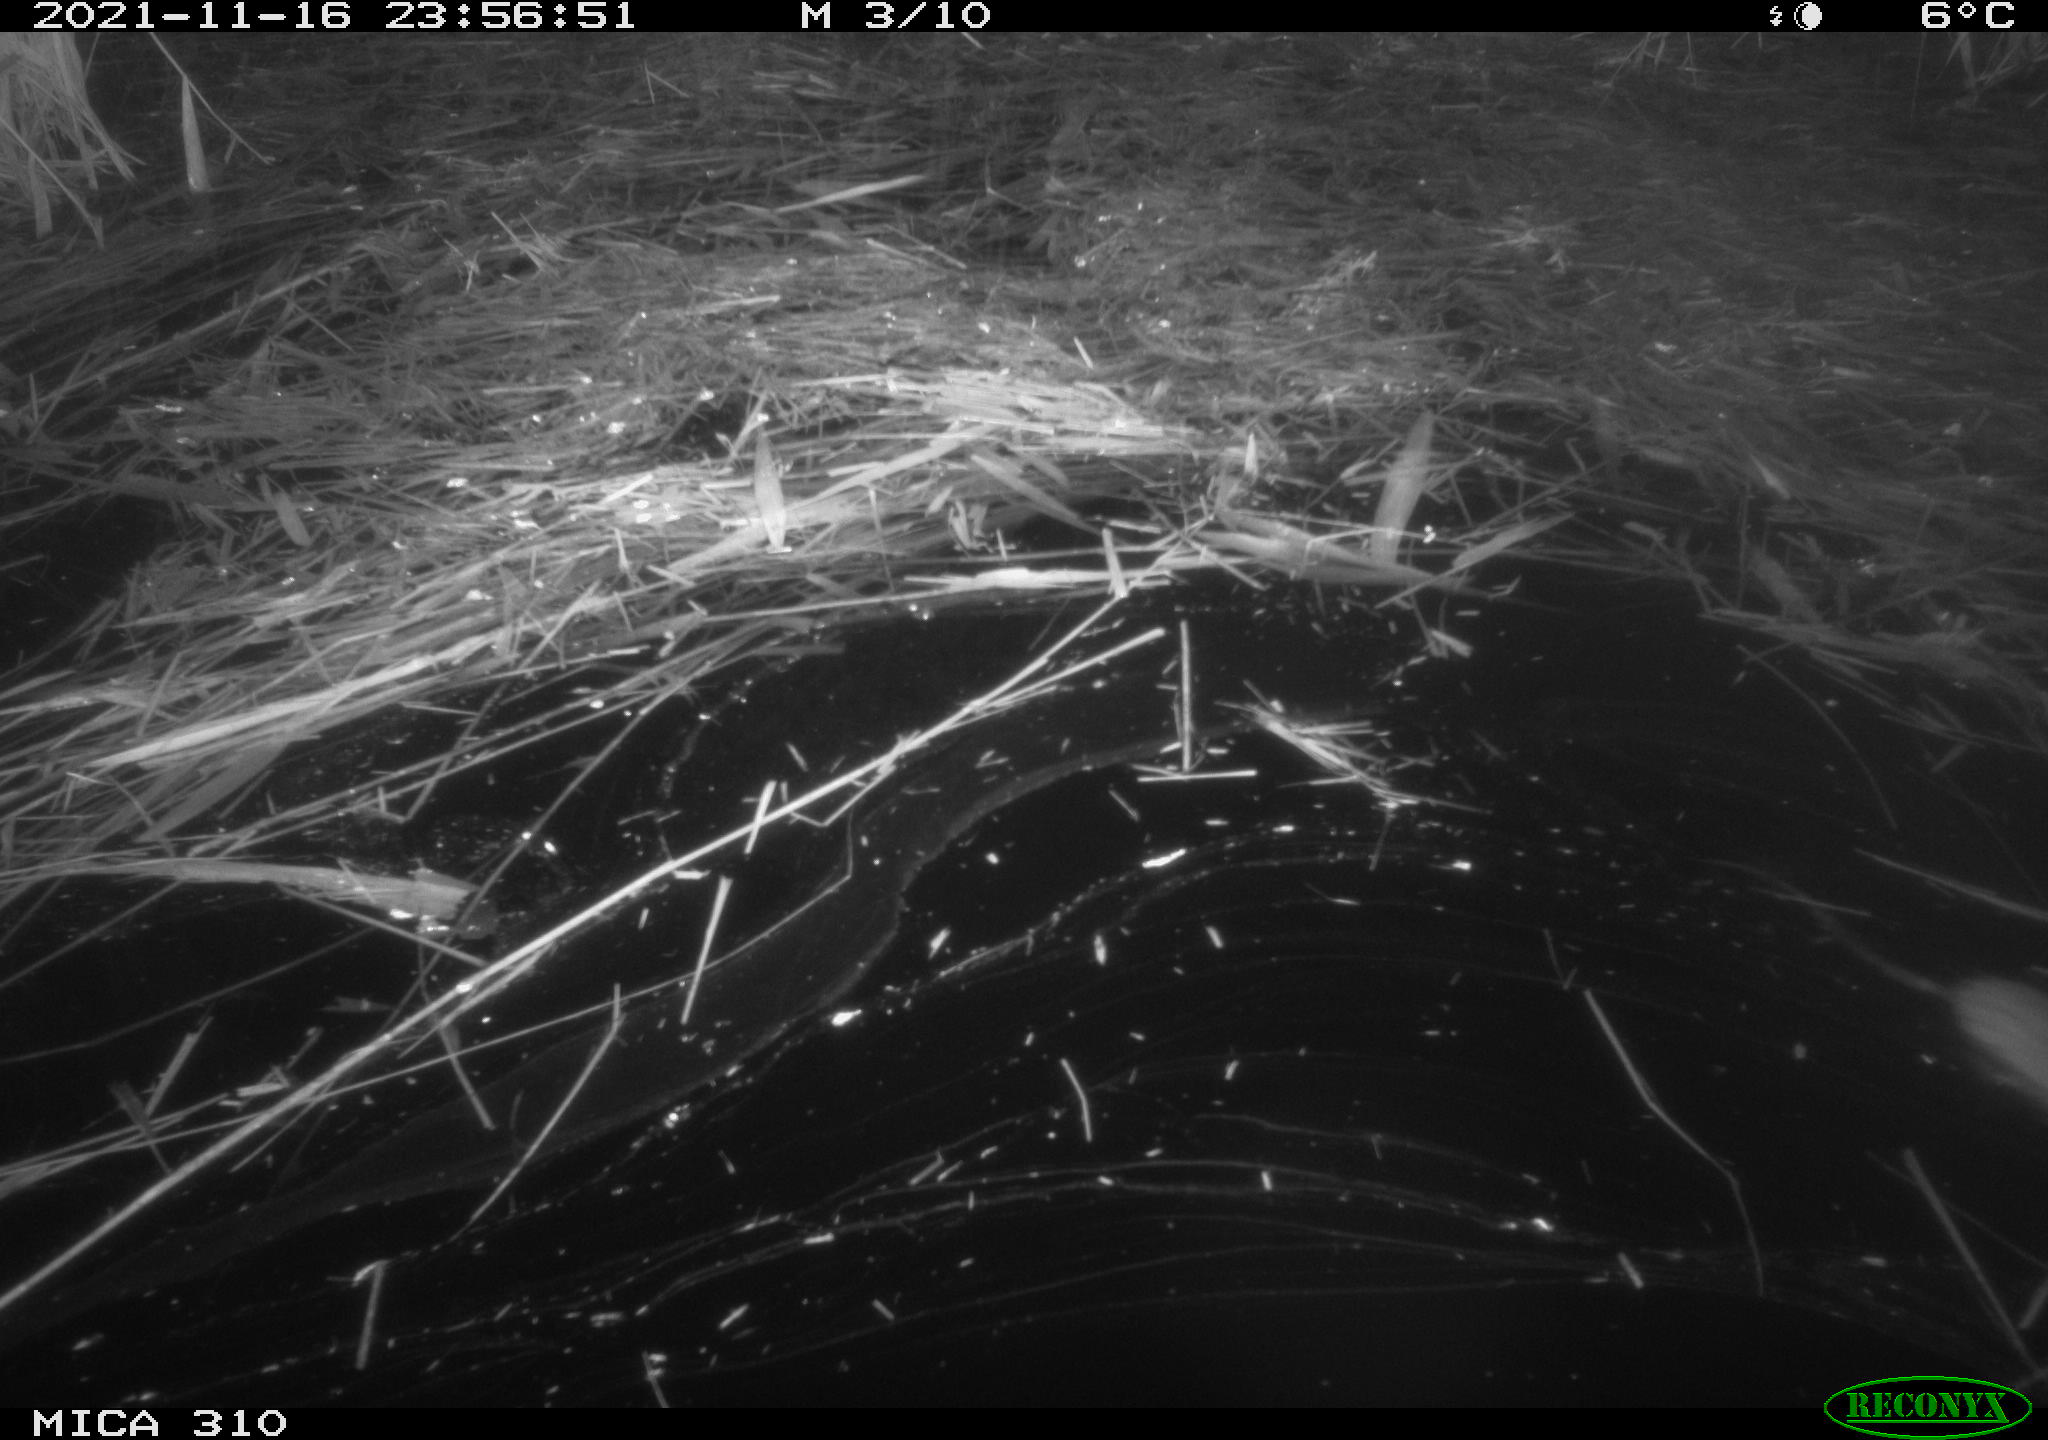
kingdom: Animalia
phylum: Chordata
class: Mammalia
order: Rodentia
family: Muridae
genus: Rattus
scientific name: Rattus norvegicus
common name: Brown rat
